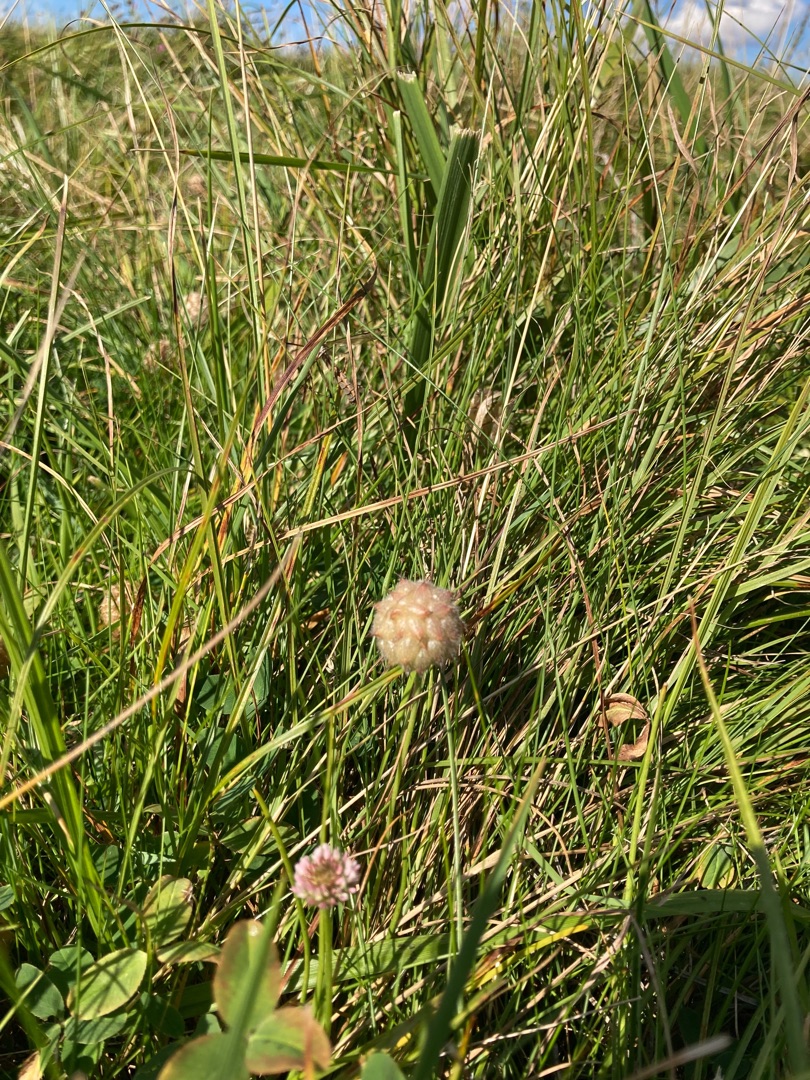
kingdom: Plantae
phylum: Tracheophyta
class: Magnoliopsida
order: Fabales
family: Fabaceae
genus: Trifolium
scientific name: Trifolium fragiferum
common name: Jordbær-kløver
